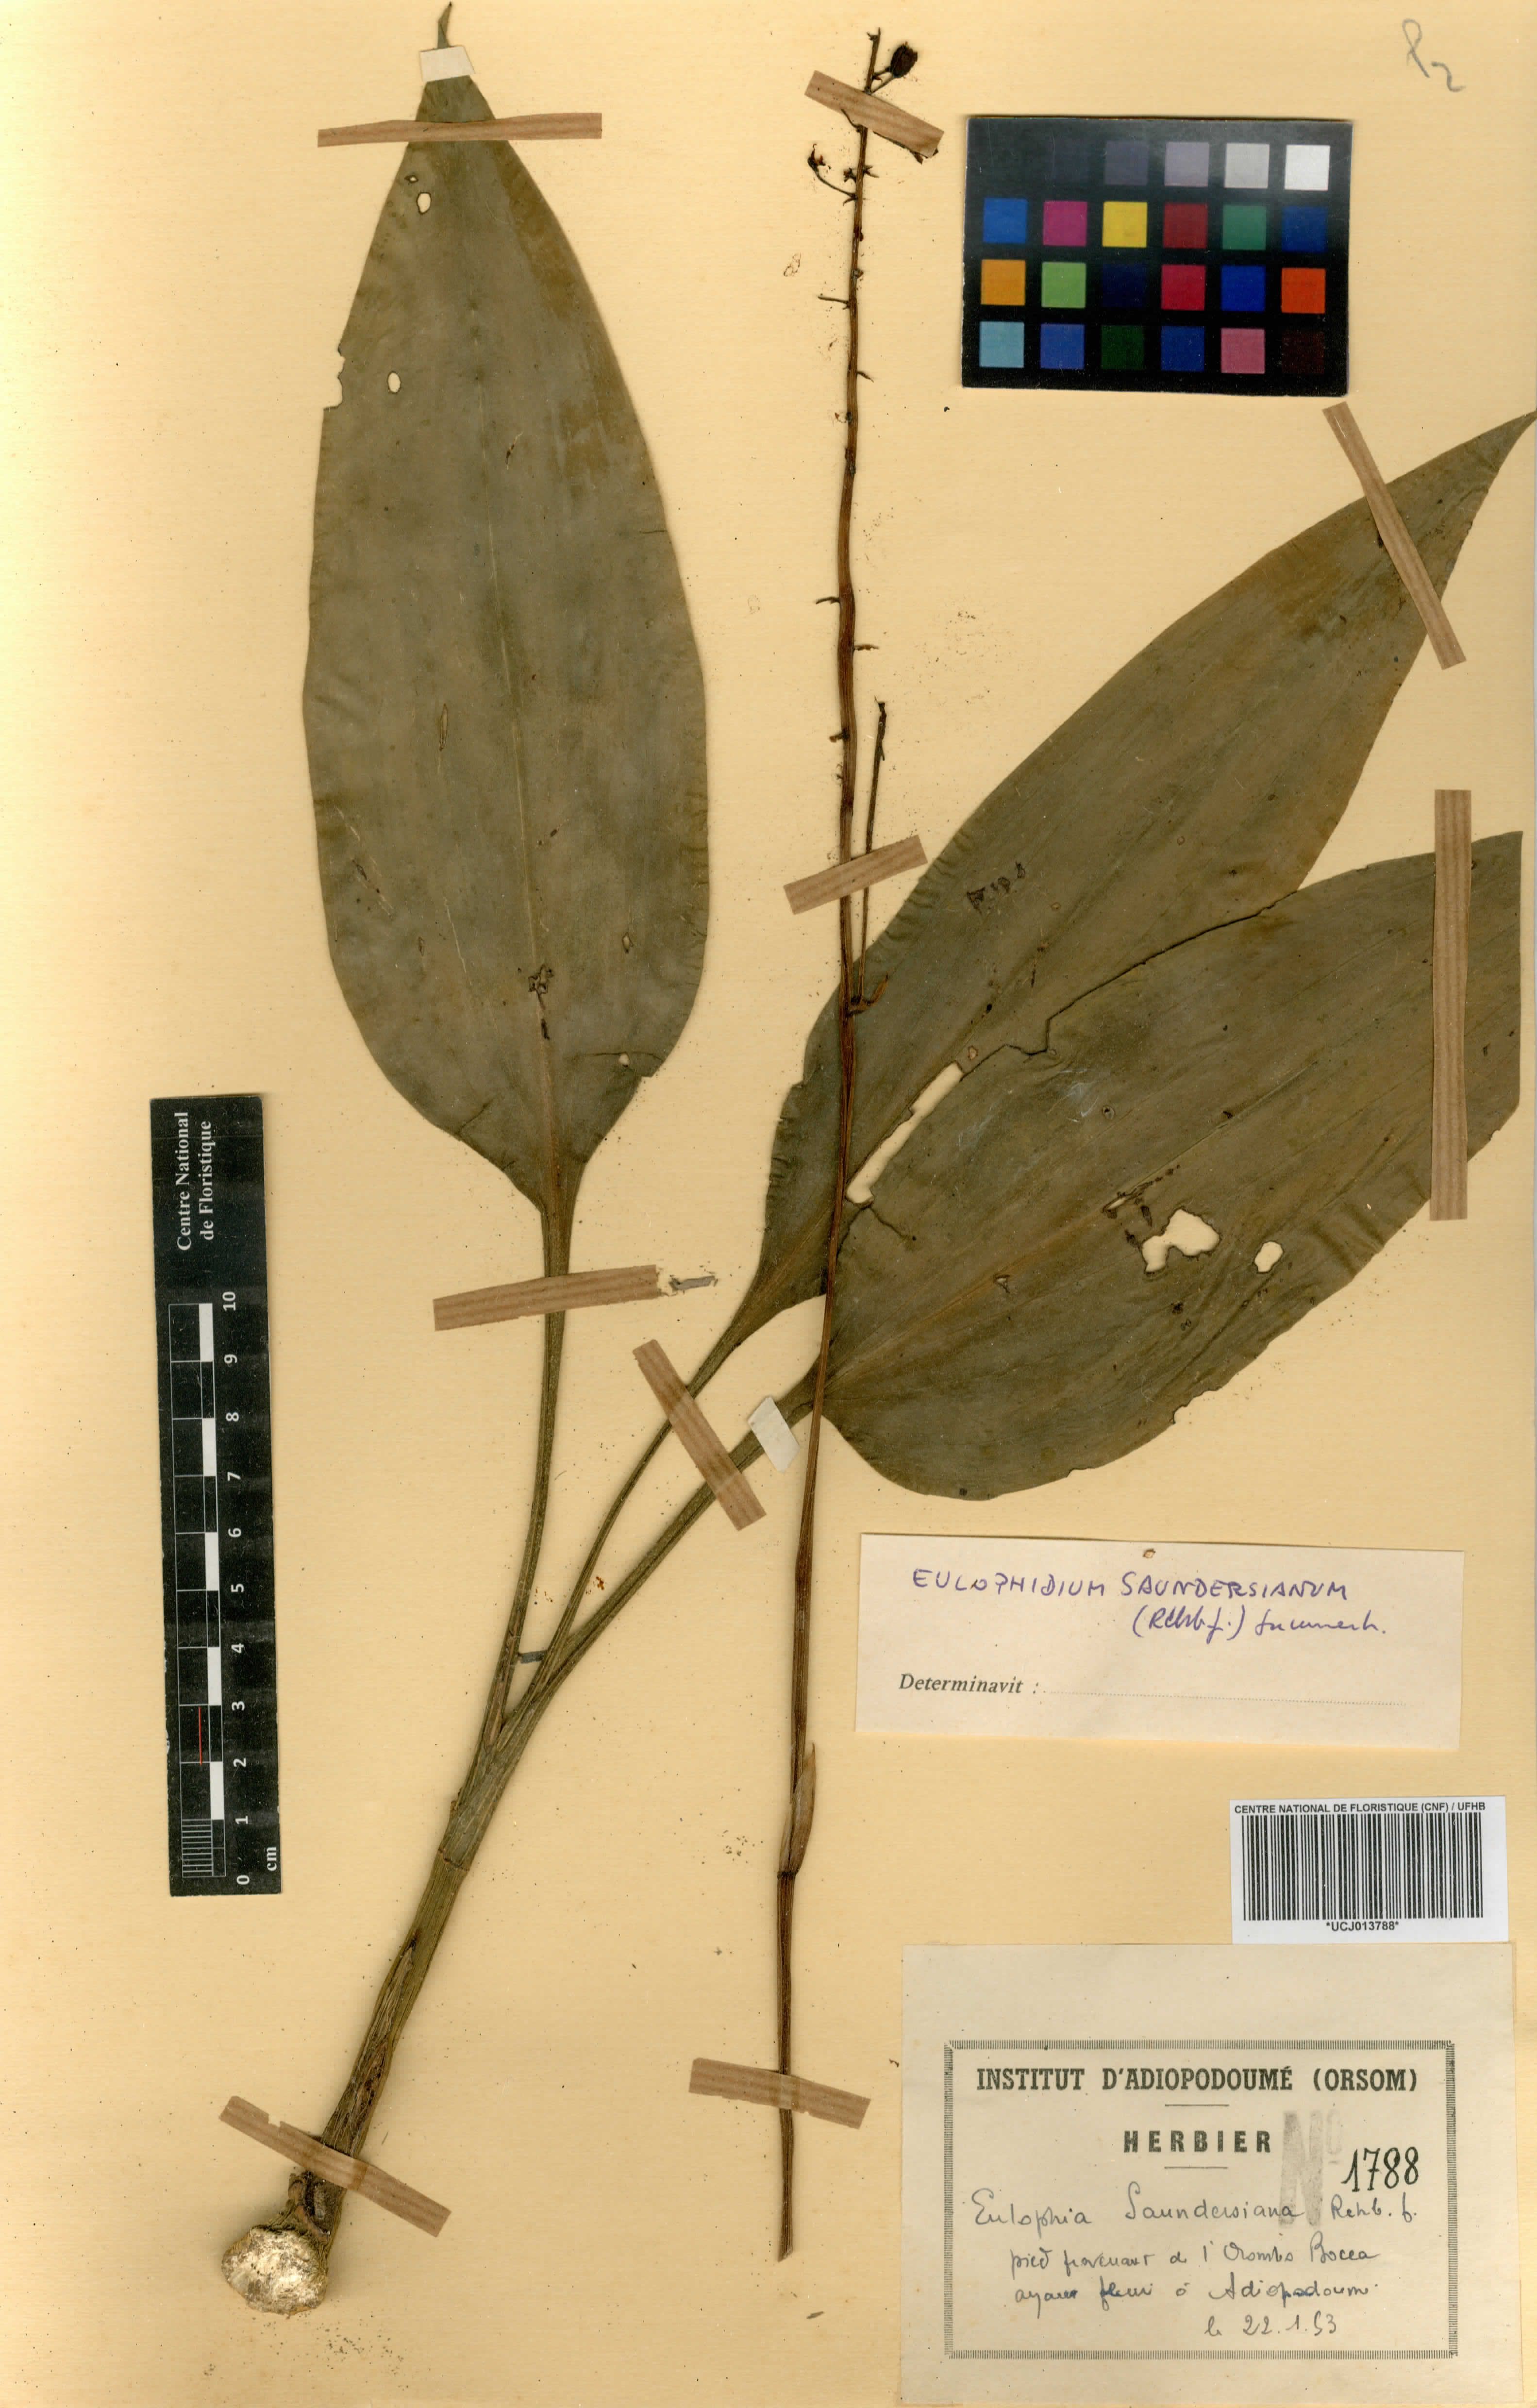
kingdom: Plantae
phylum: Tracheophyta
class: Liliopsida
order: Asparagales
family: Orchidaceae
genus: Eulophia
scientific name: Eulophia saundersiana
